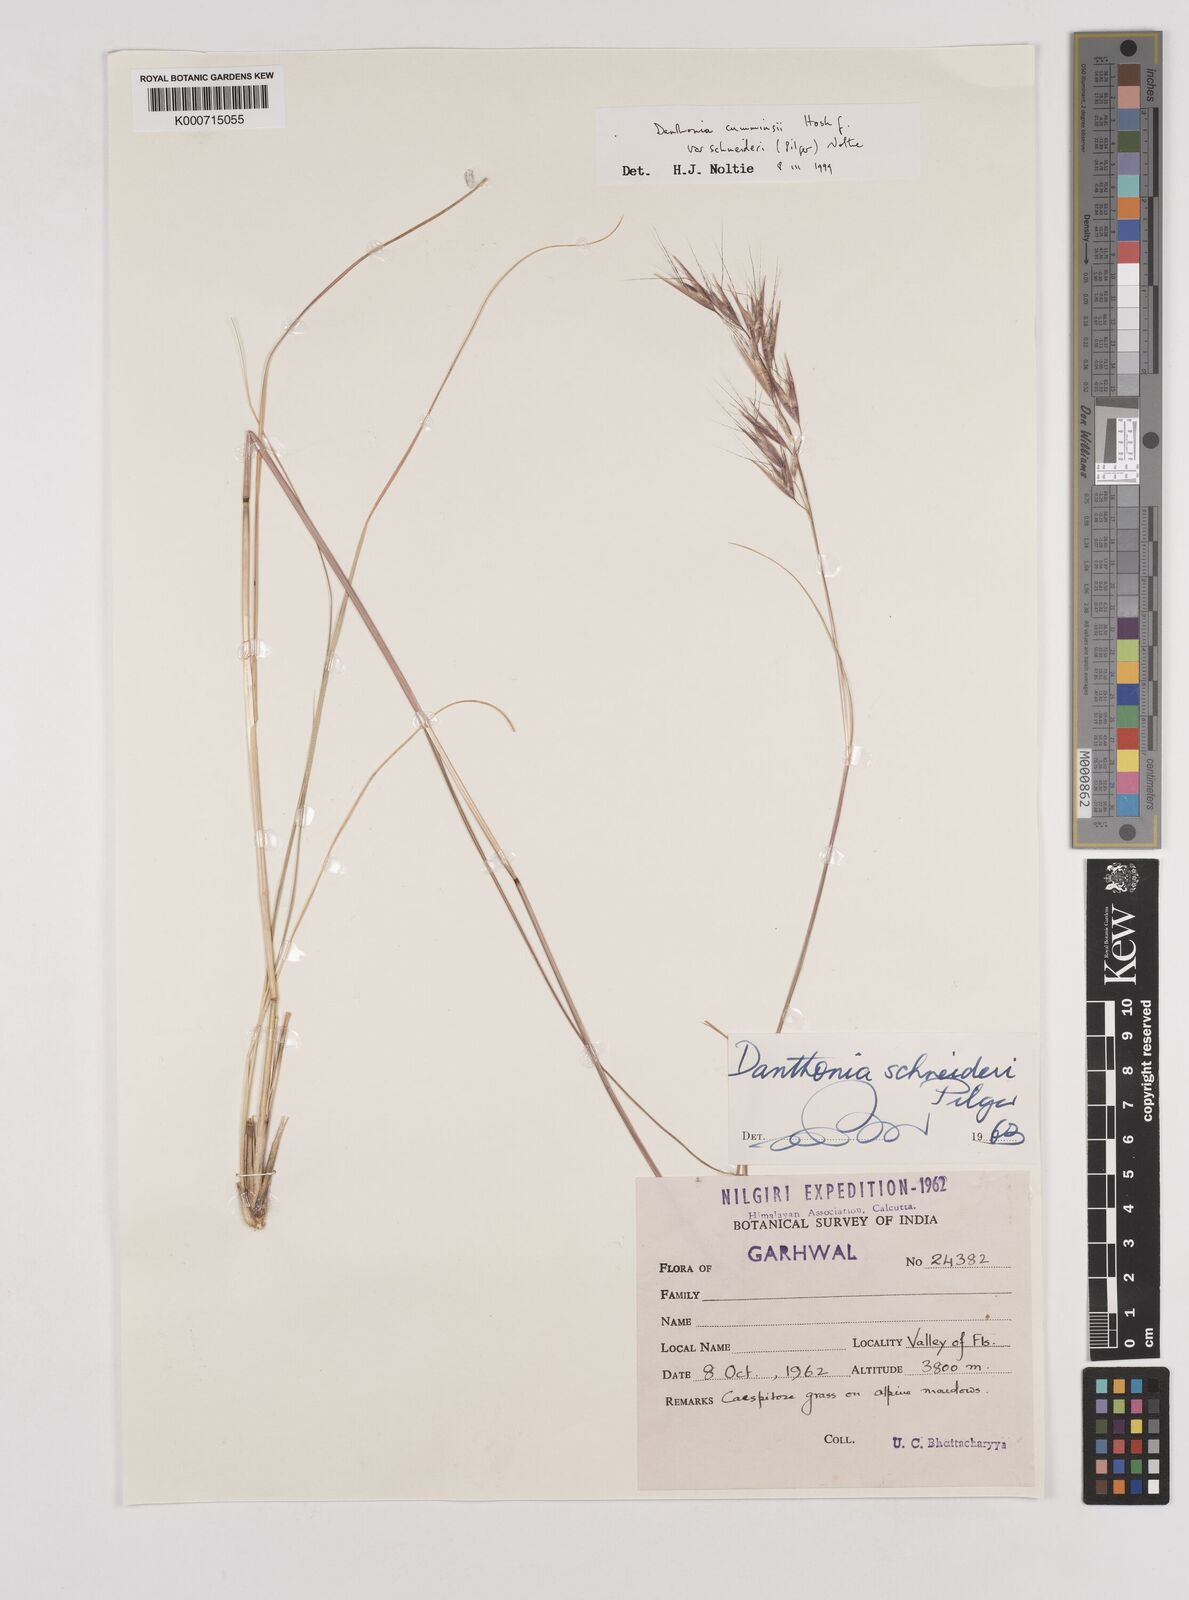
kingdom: Plantae
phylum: Tracheophyta
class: Liliopsida
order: Poales
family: Poaceae
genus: Rytidosperma
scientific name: Rytidosperma
